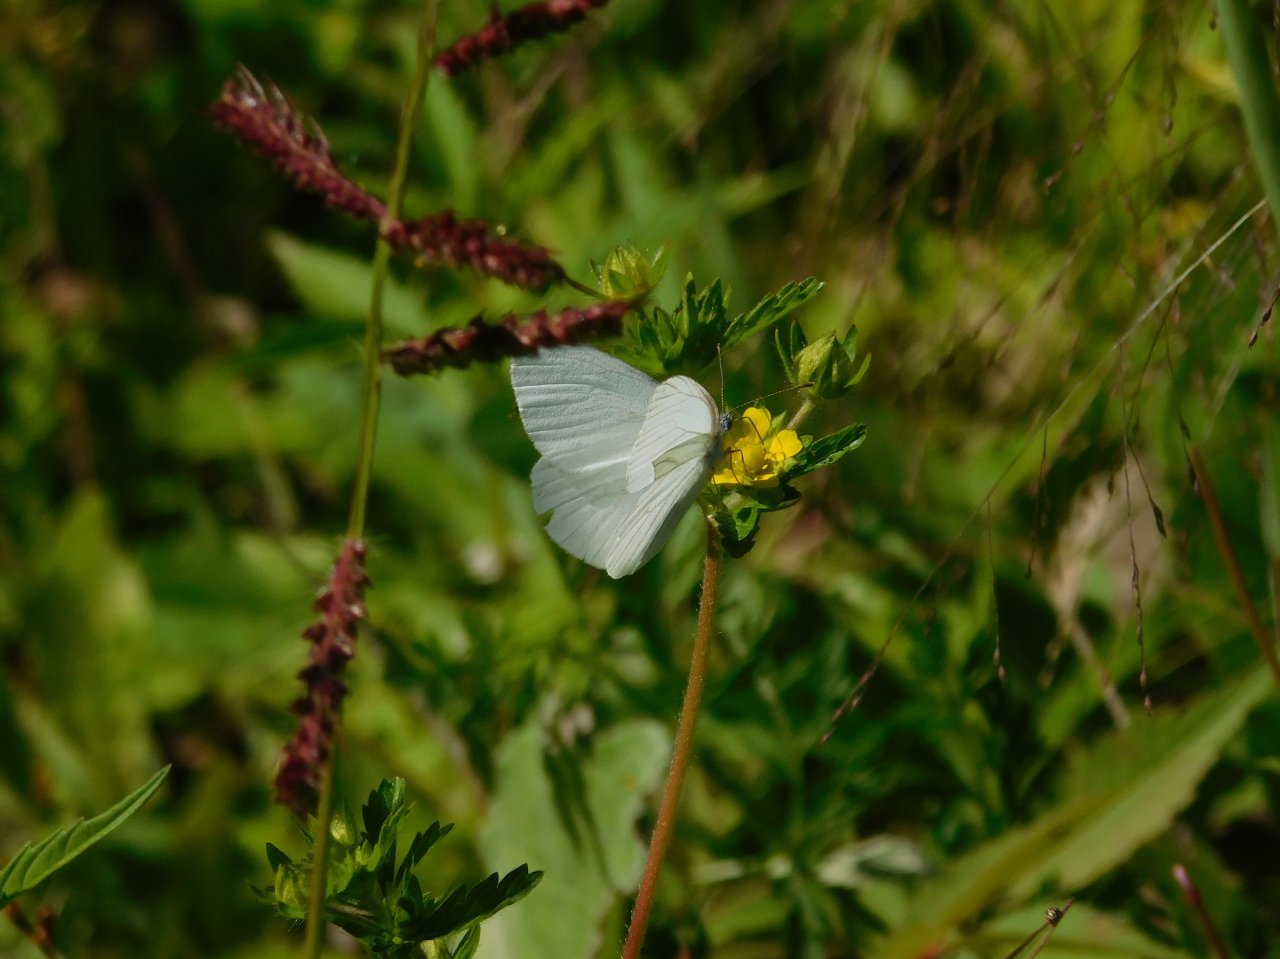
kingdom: Animalia
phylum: Arthropoda
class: Insecta
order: Lepidoptera
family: Pieridae
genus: Pieris
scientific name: Pieris oleracea
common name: Mustard White
